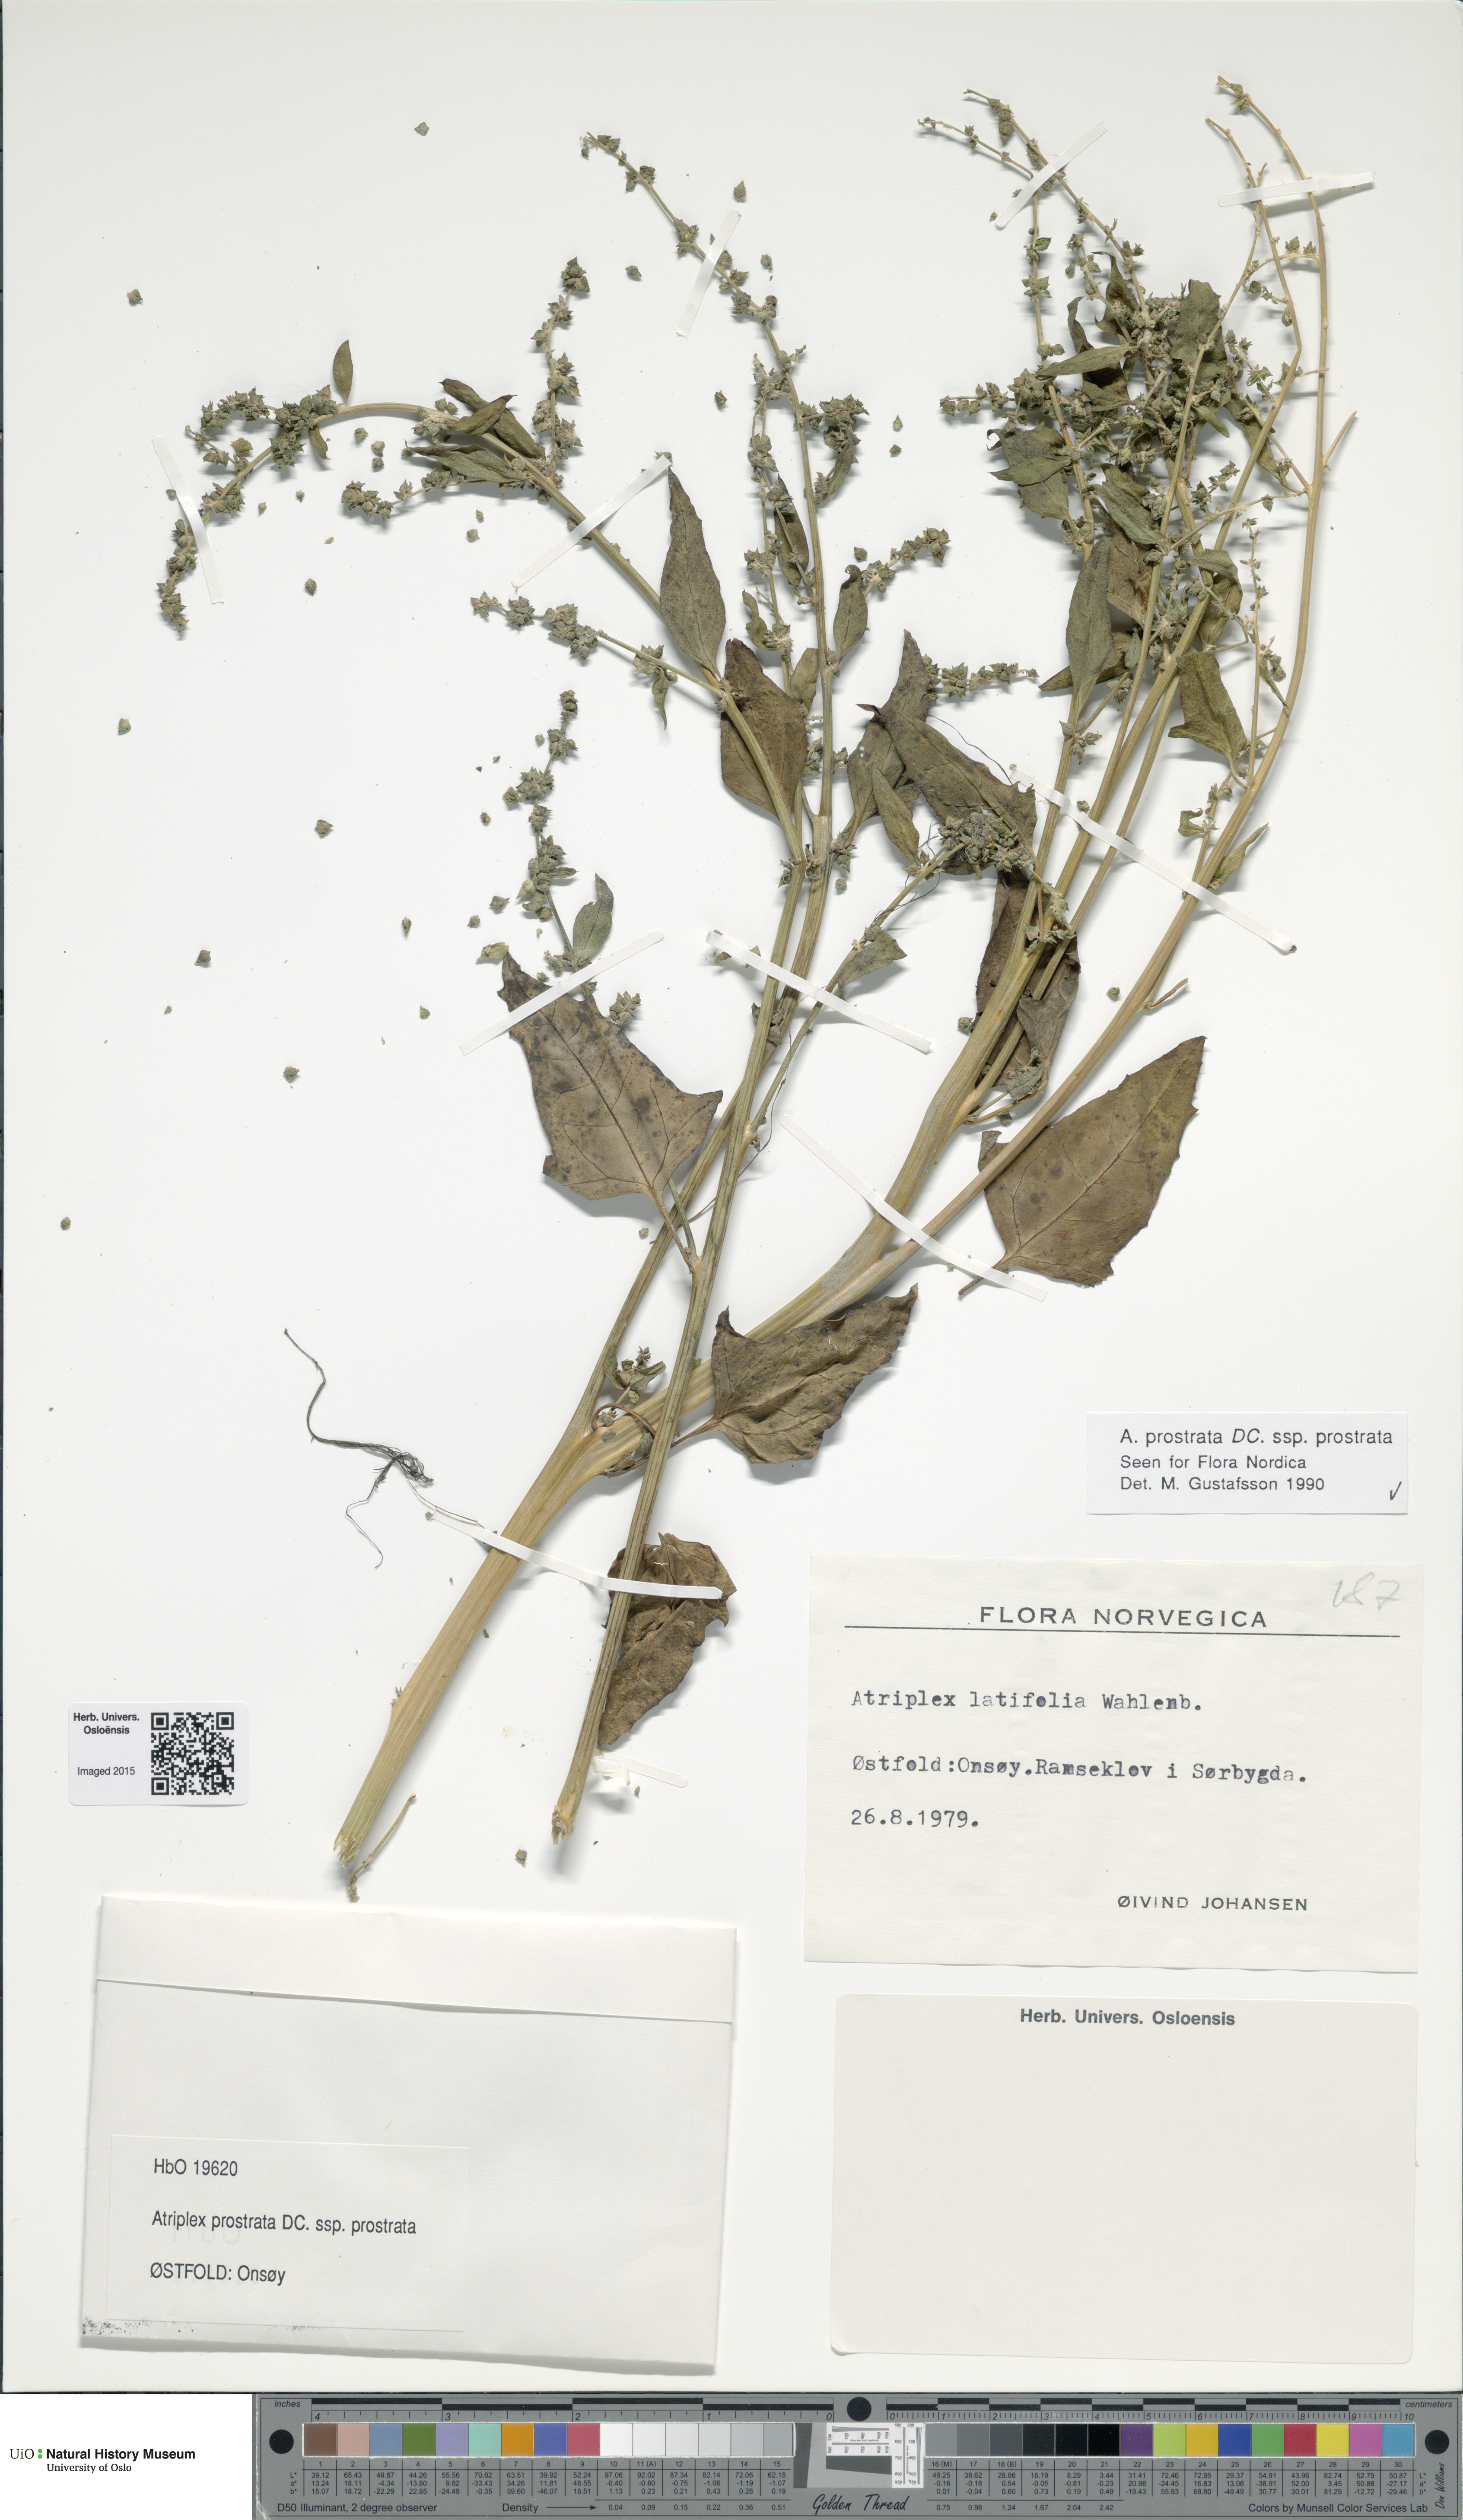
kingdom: Plantae
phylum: Tracheophyta
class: Magnoliopsida
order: Caryophyllales
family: Amaranthaceae
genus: Atriplex
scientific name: Atriplex prostrata
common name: Spear-leaved orache
